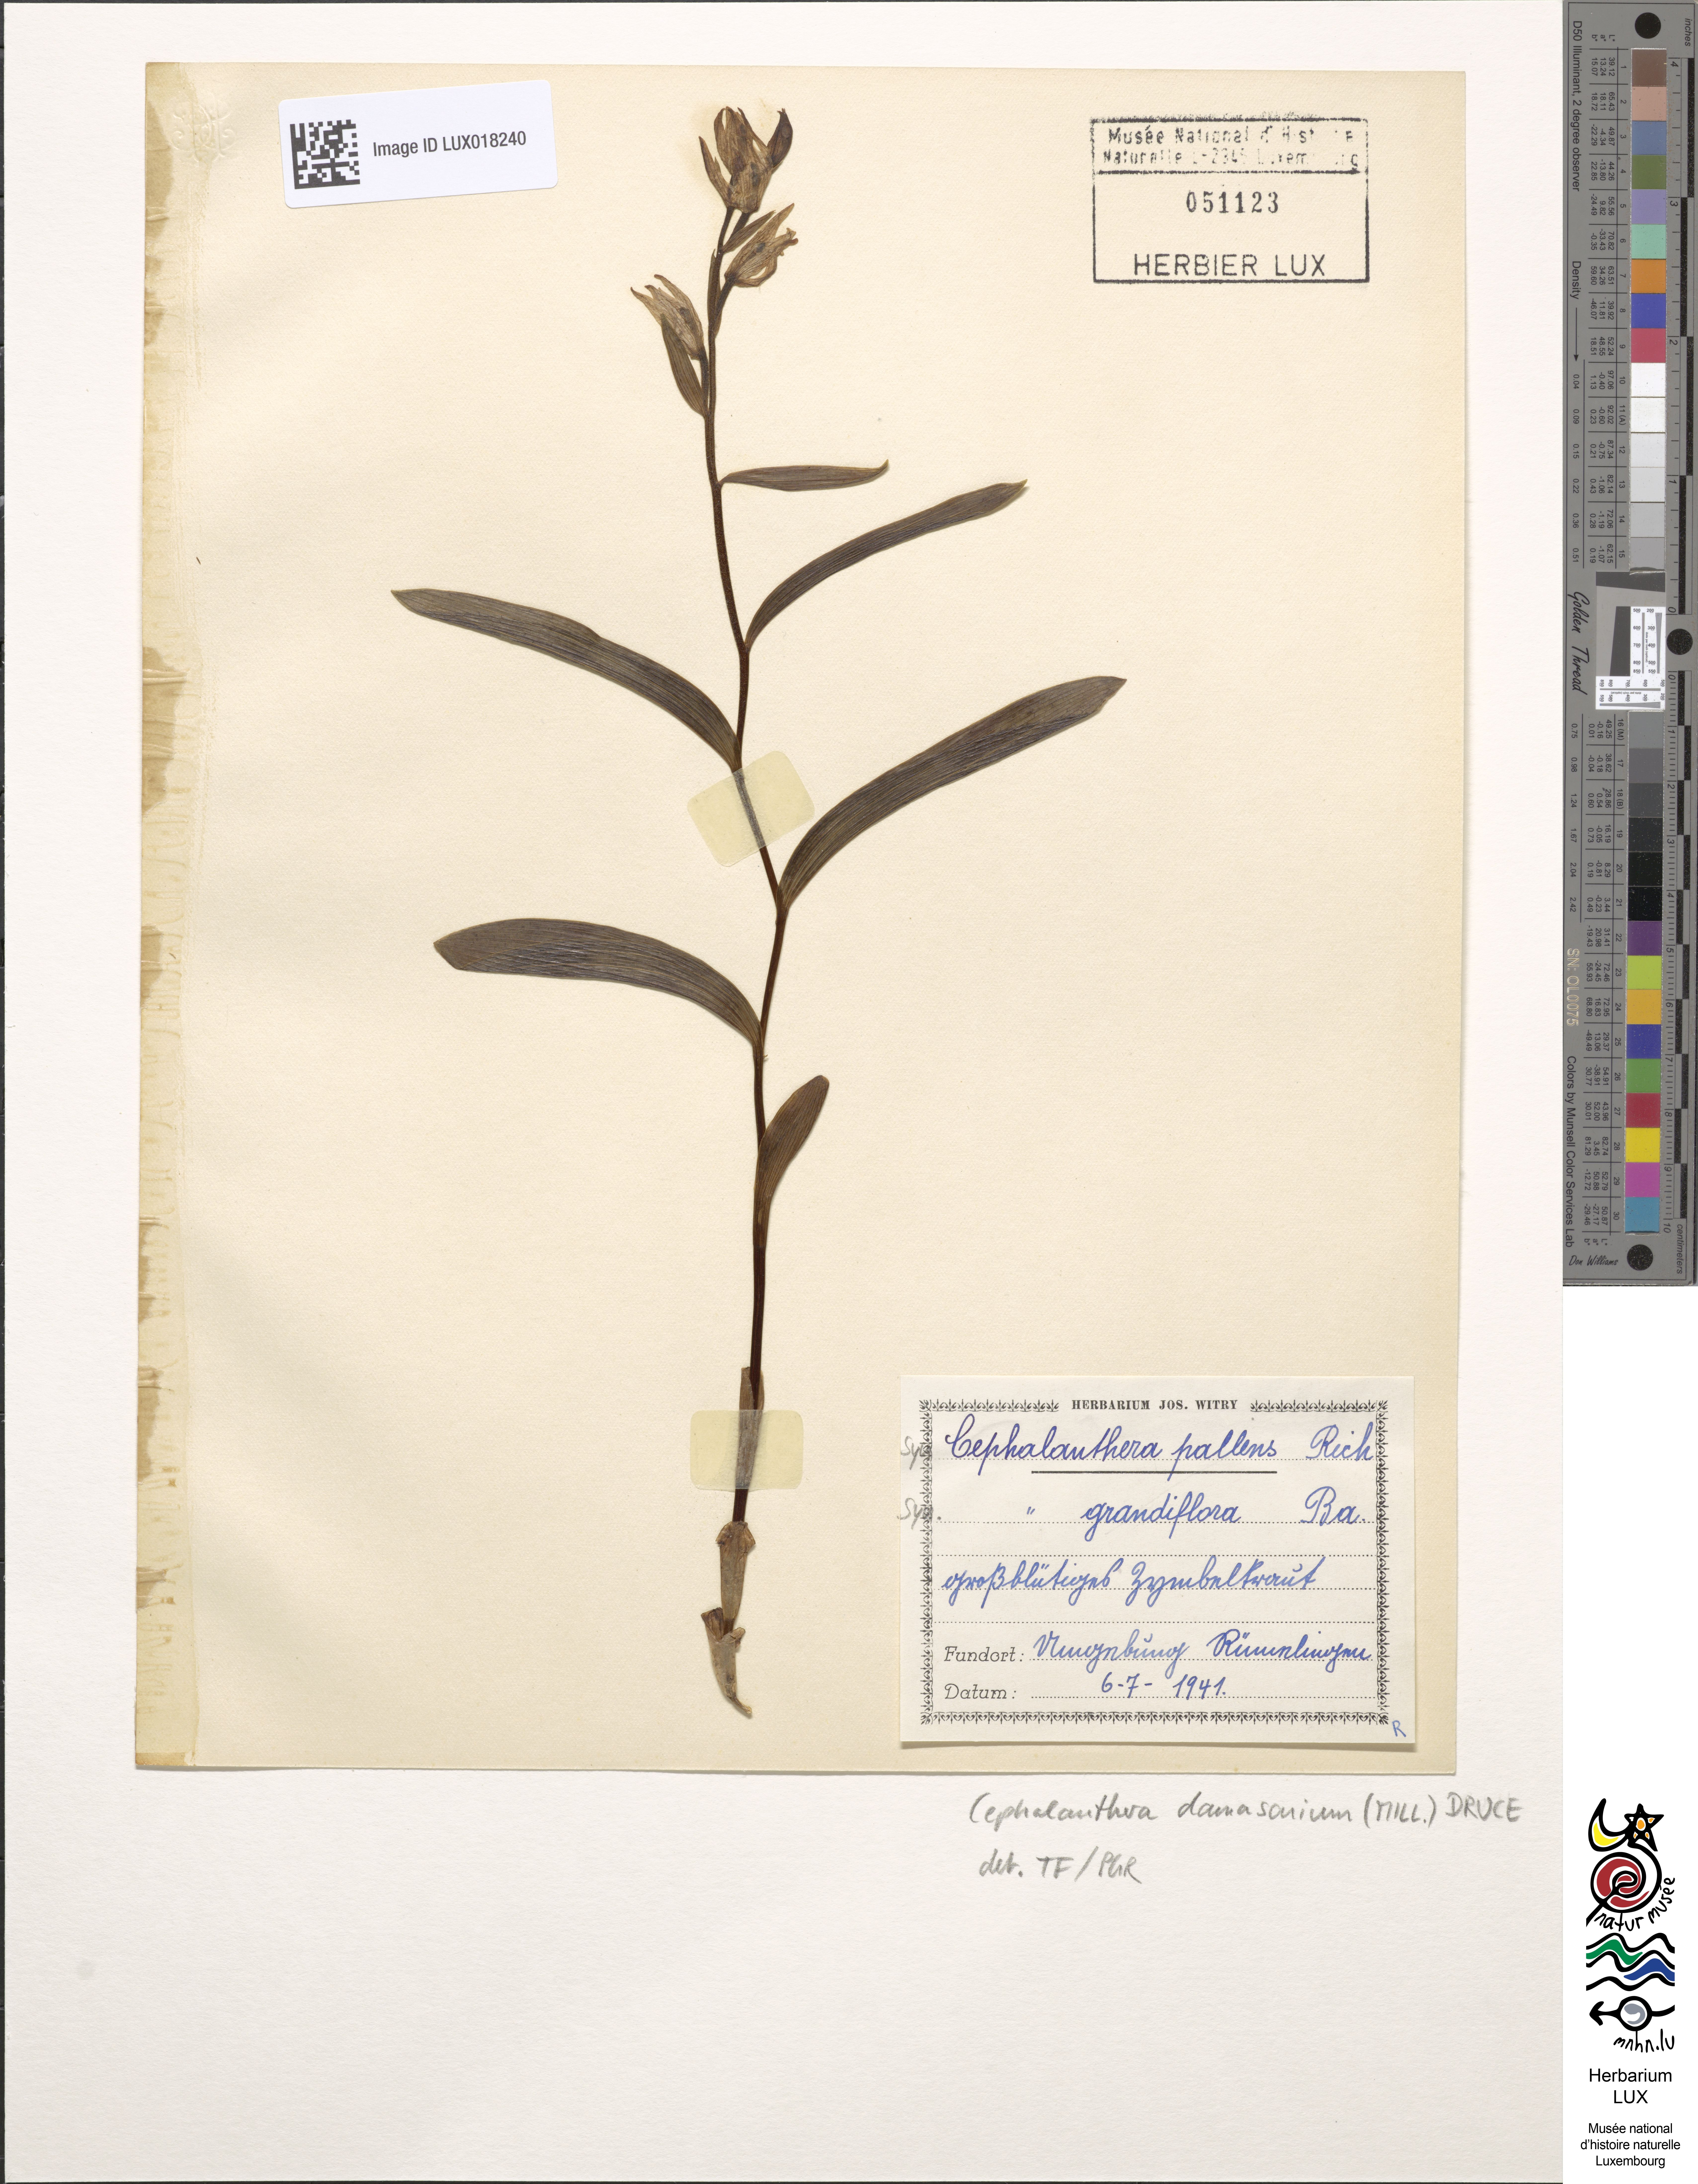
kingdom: Plantae
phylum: Tracheophyta
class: Liliopsida
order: Asparagales
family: Orchidaceae
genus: Cephalanthera
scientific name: Cephalanthera damasonium
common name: White helleborine
